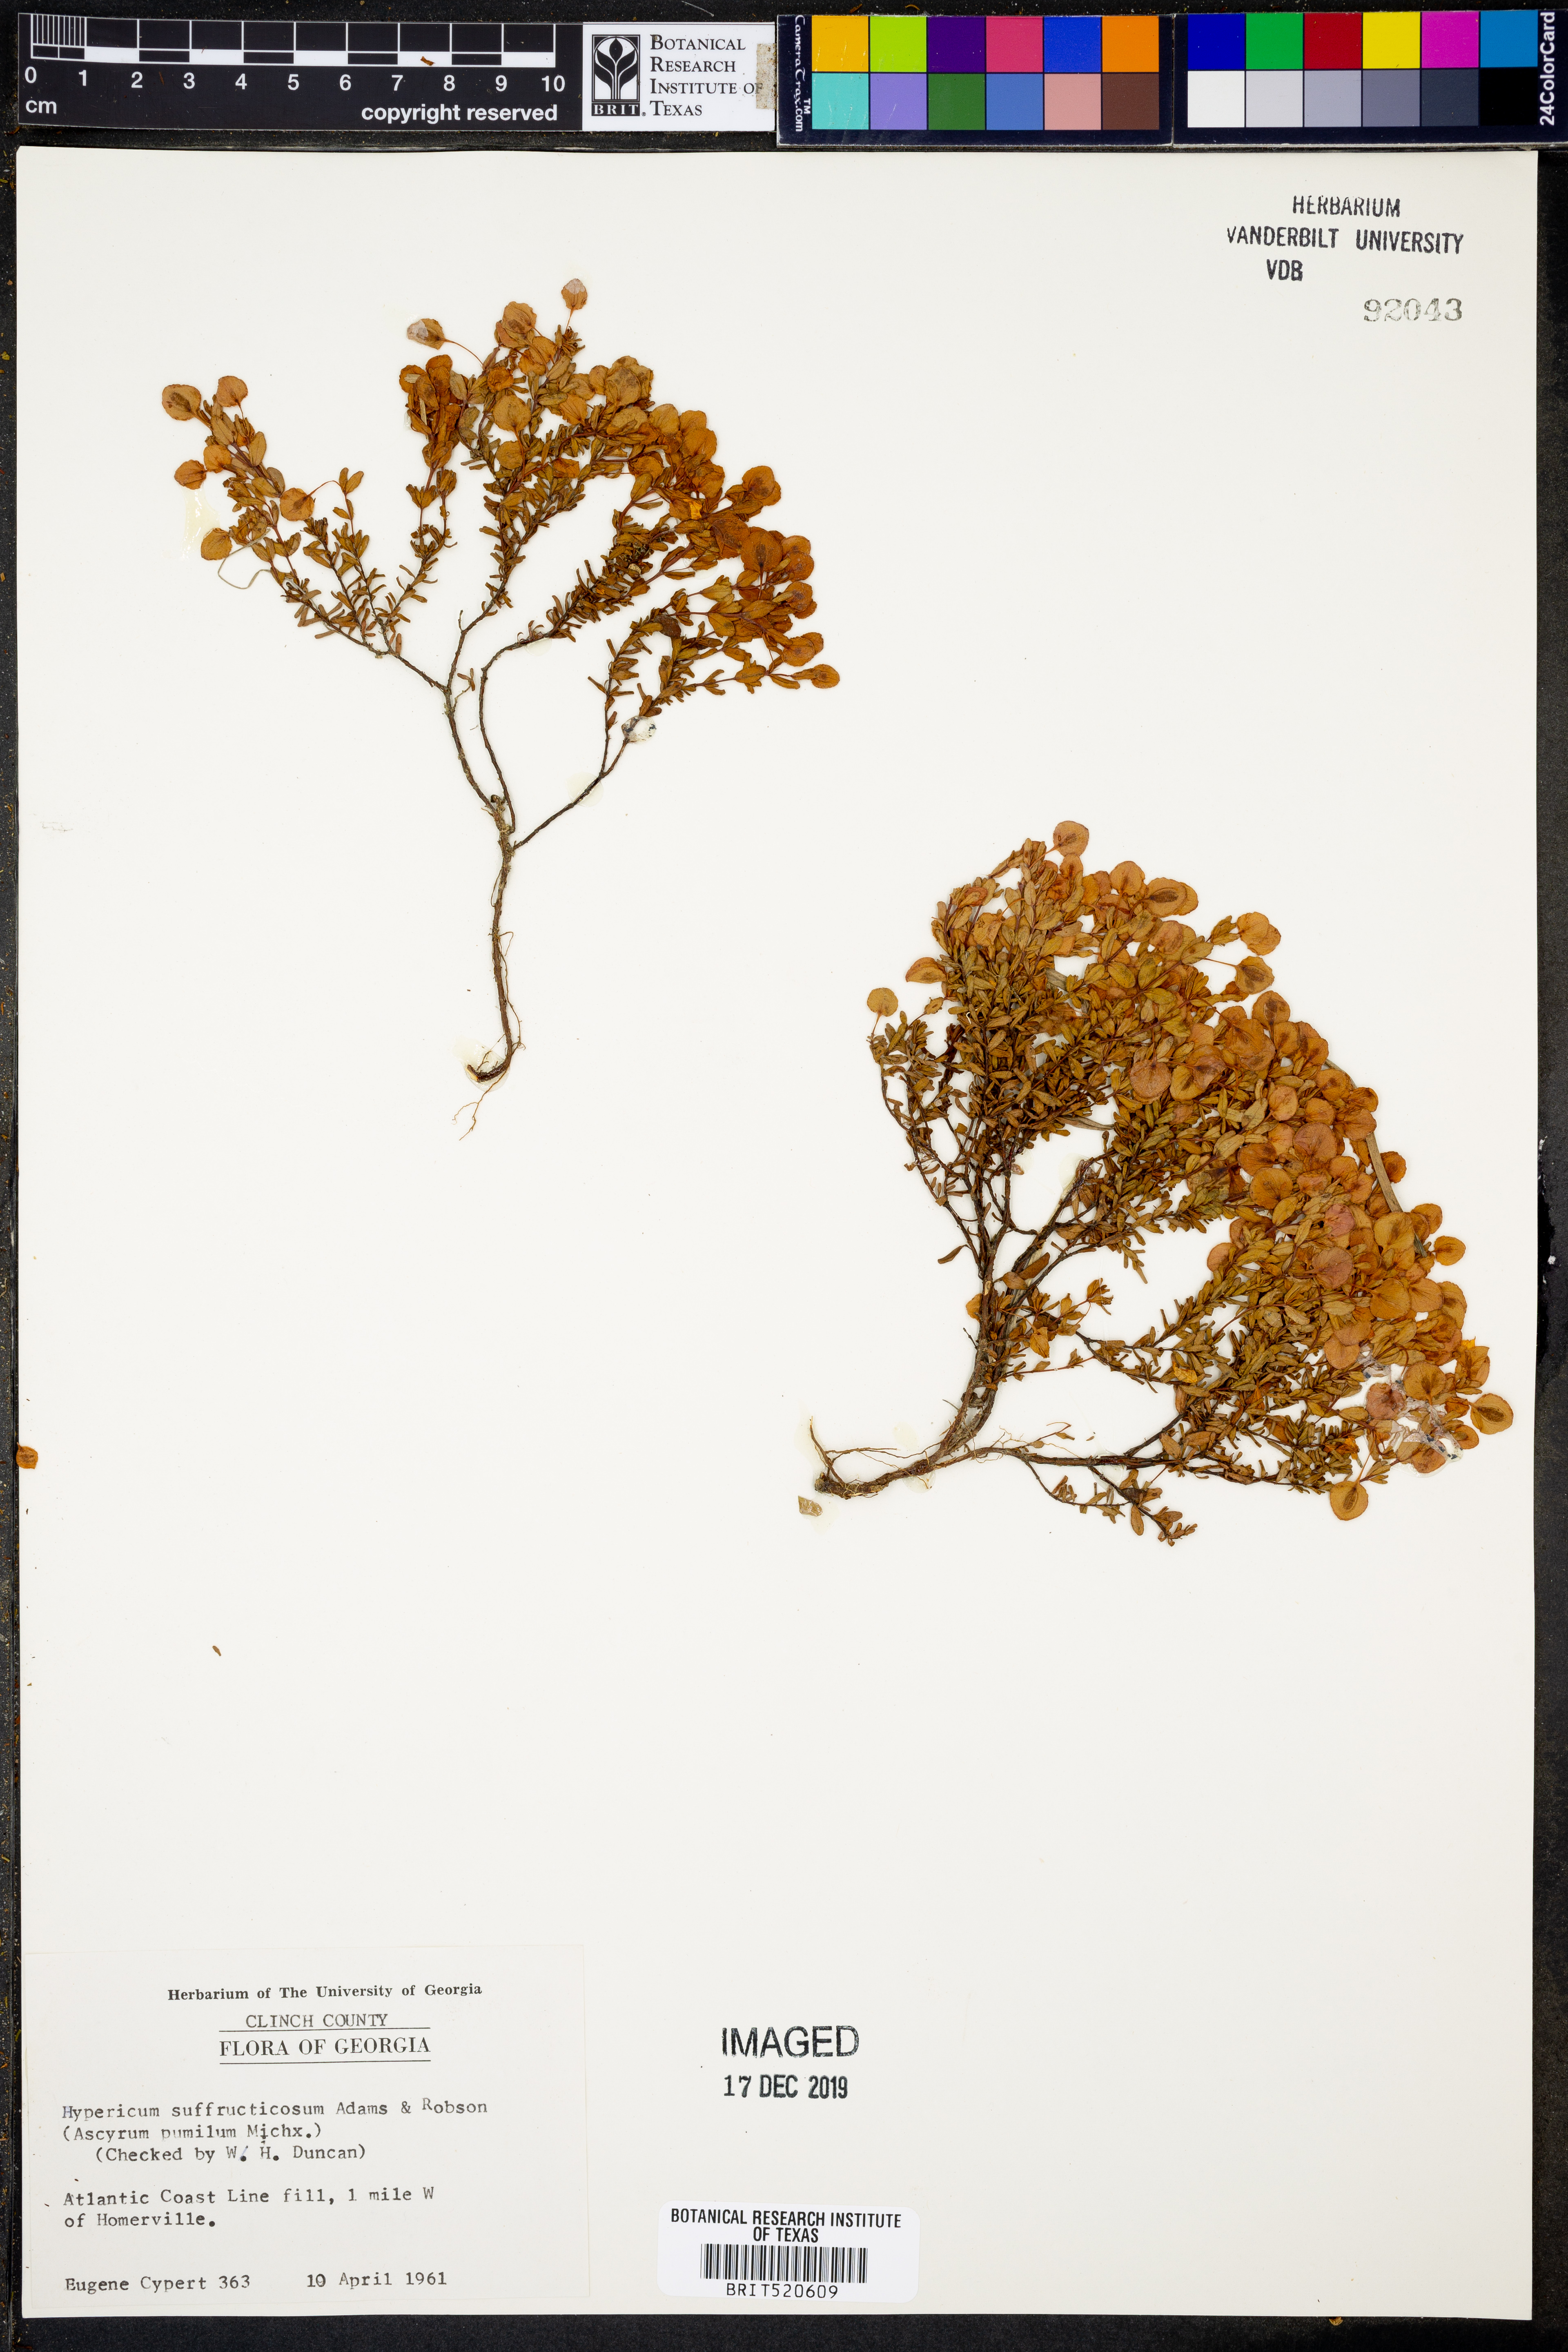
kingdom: Plantae
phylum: Tracheophyta
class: Magnoliopsida
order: Malpighiales
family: Hypericaceae
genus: Hypericum
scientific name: Hypericum suffruticosum
